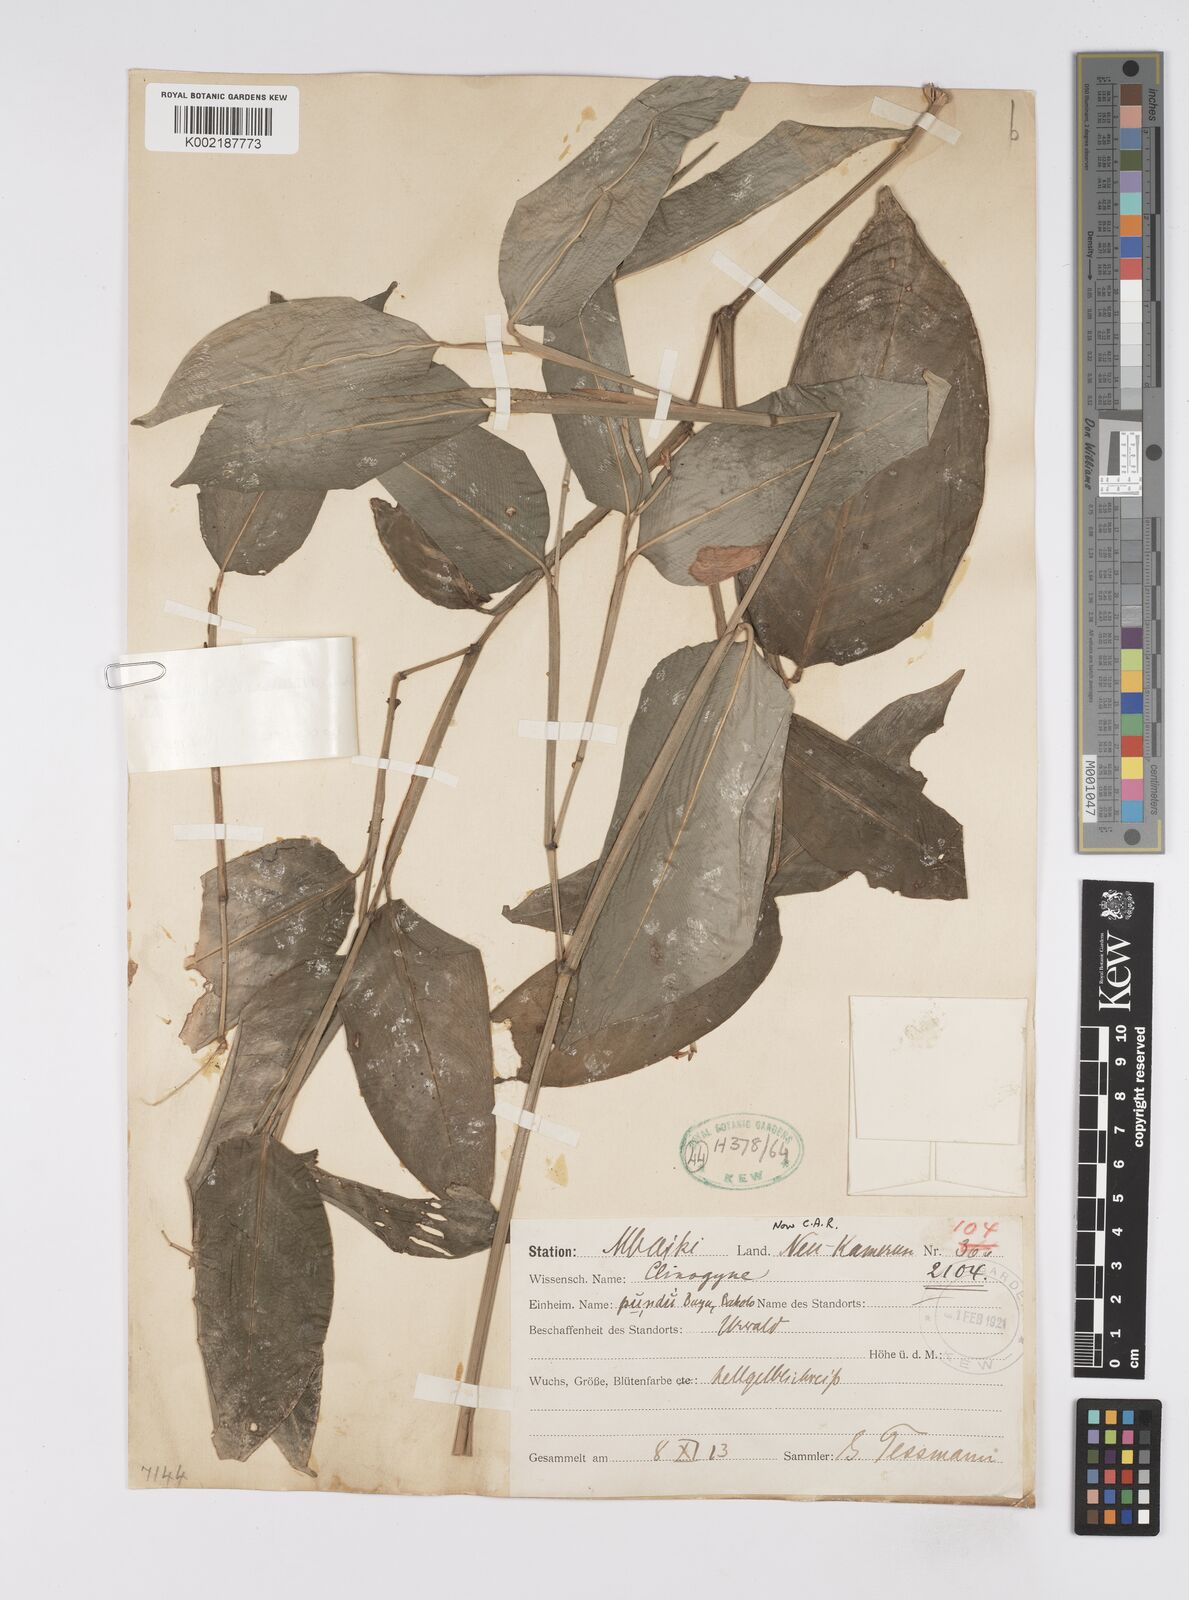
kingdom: Plantae
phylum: Tracheophyta
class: Liliopsida
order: Zingiberales
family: Marantaceae
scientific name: Marantaceae
